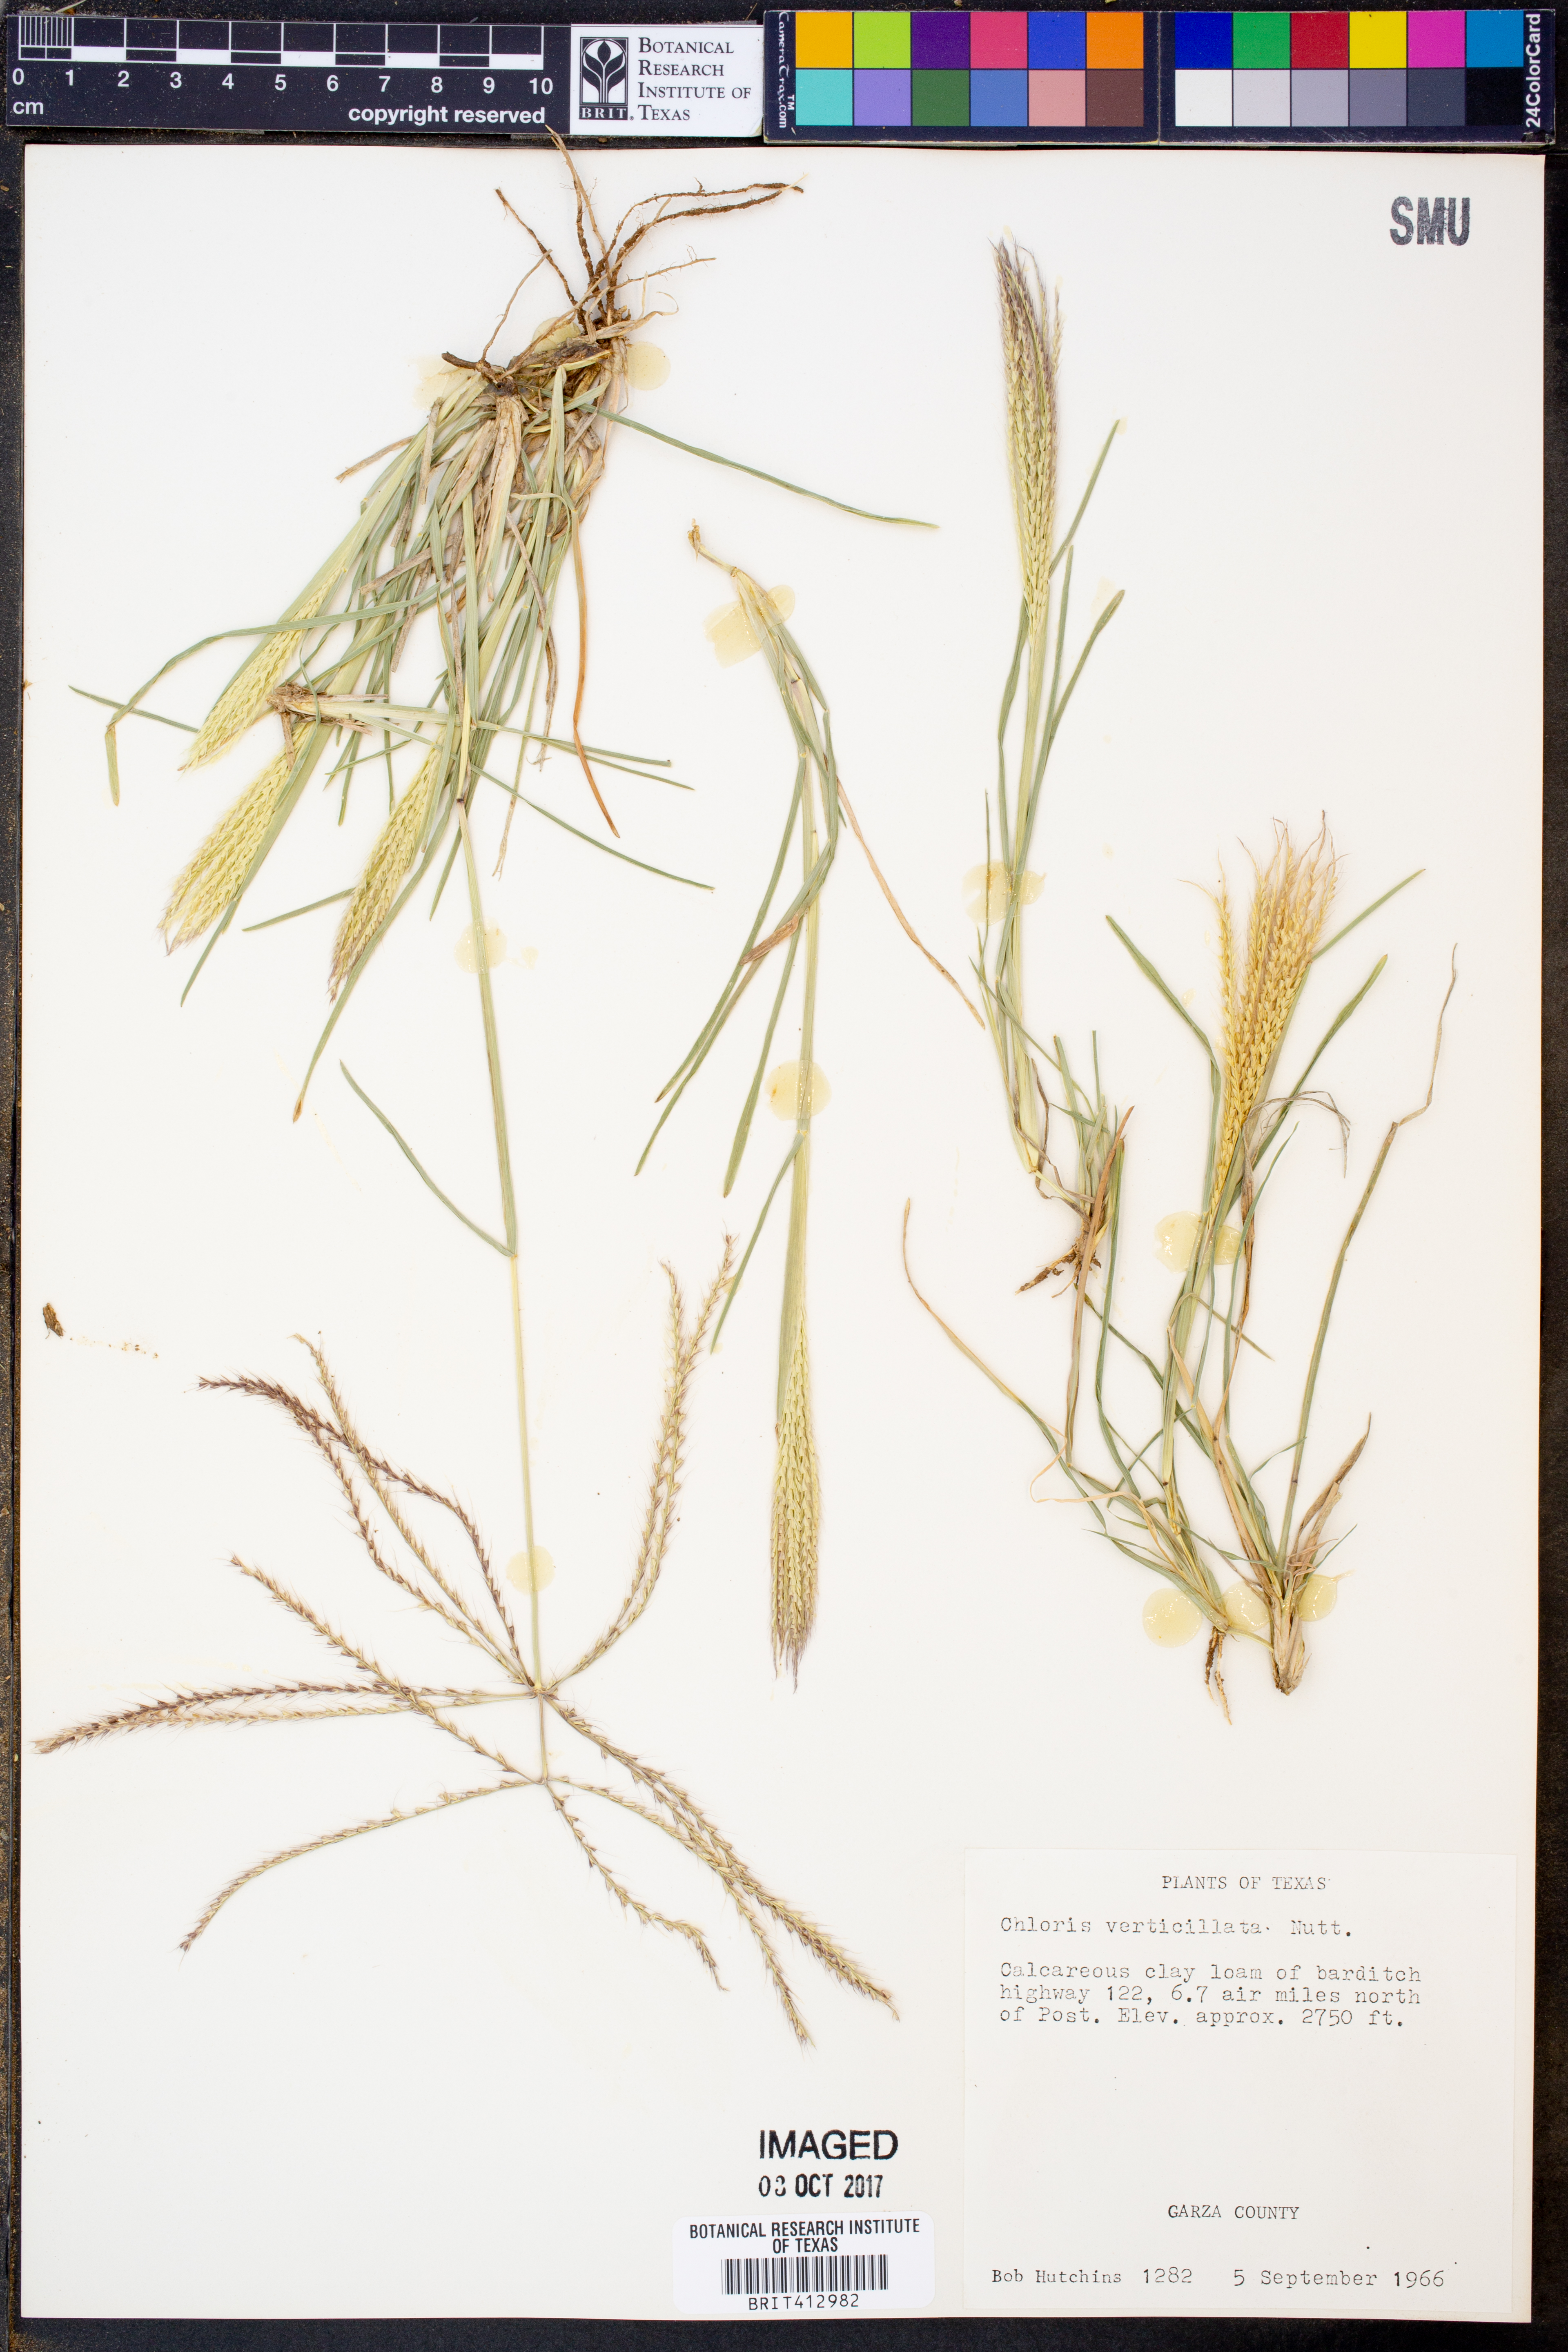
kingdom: Plantae
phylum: Tracheophyta
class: Liliopsida
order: Poales
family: Poaceae
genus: Chloris
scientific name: Chloris verticillata
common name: Tumble windmill grass
